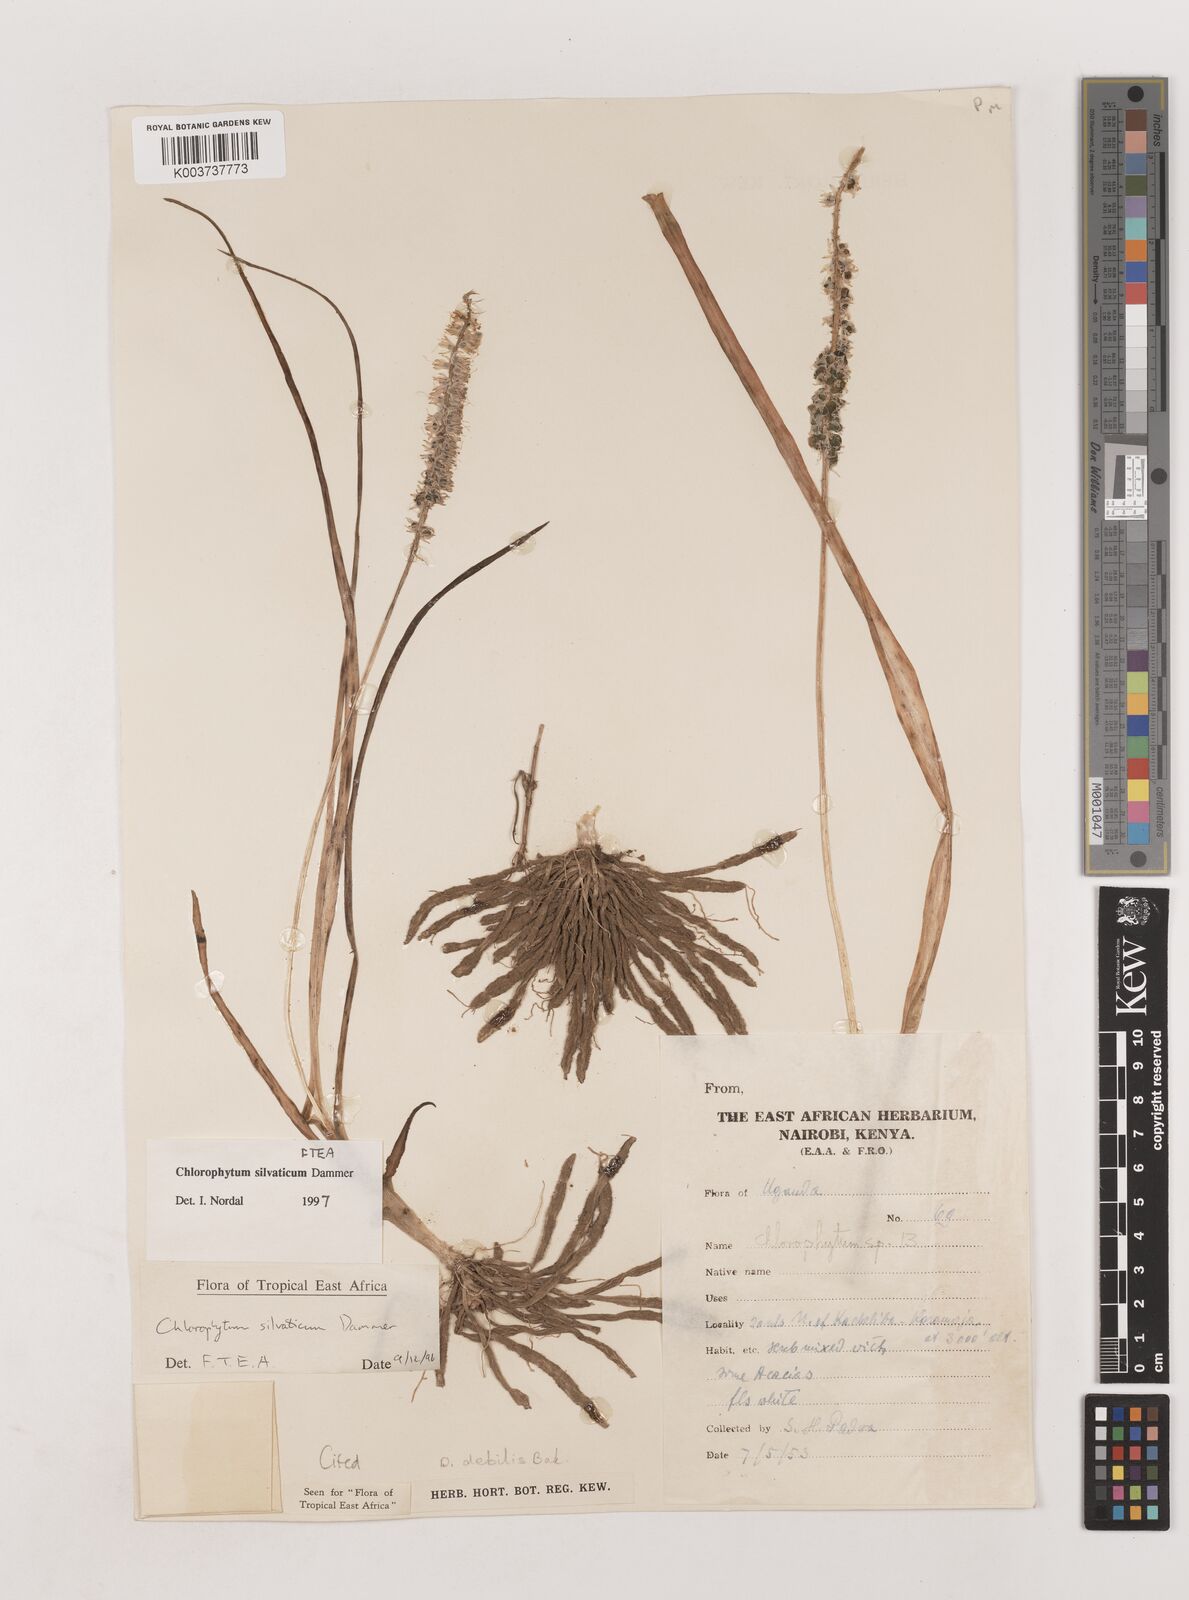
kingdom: Plantae
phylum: Tracheophyta
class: Liliopsida
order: Asparagales
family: Asparagaceae
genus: Chlorophytum
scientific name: Chlorophytum africanum
